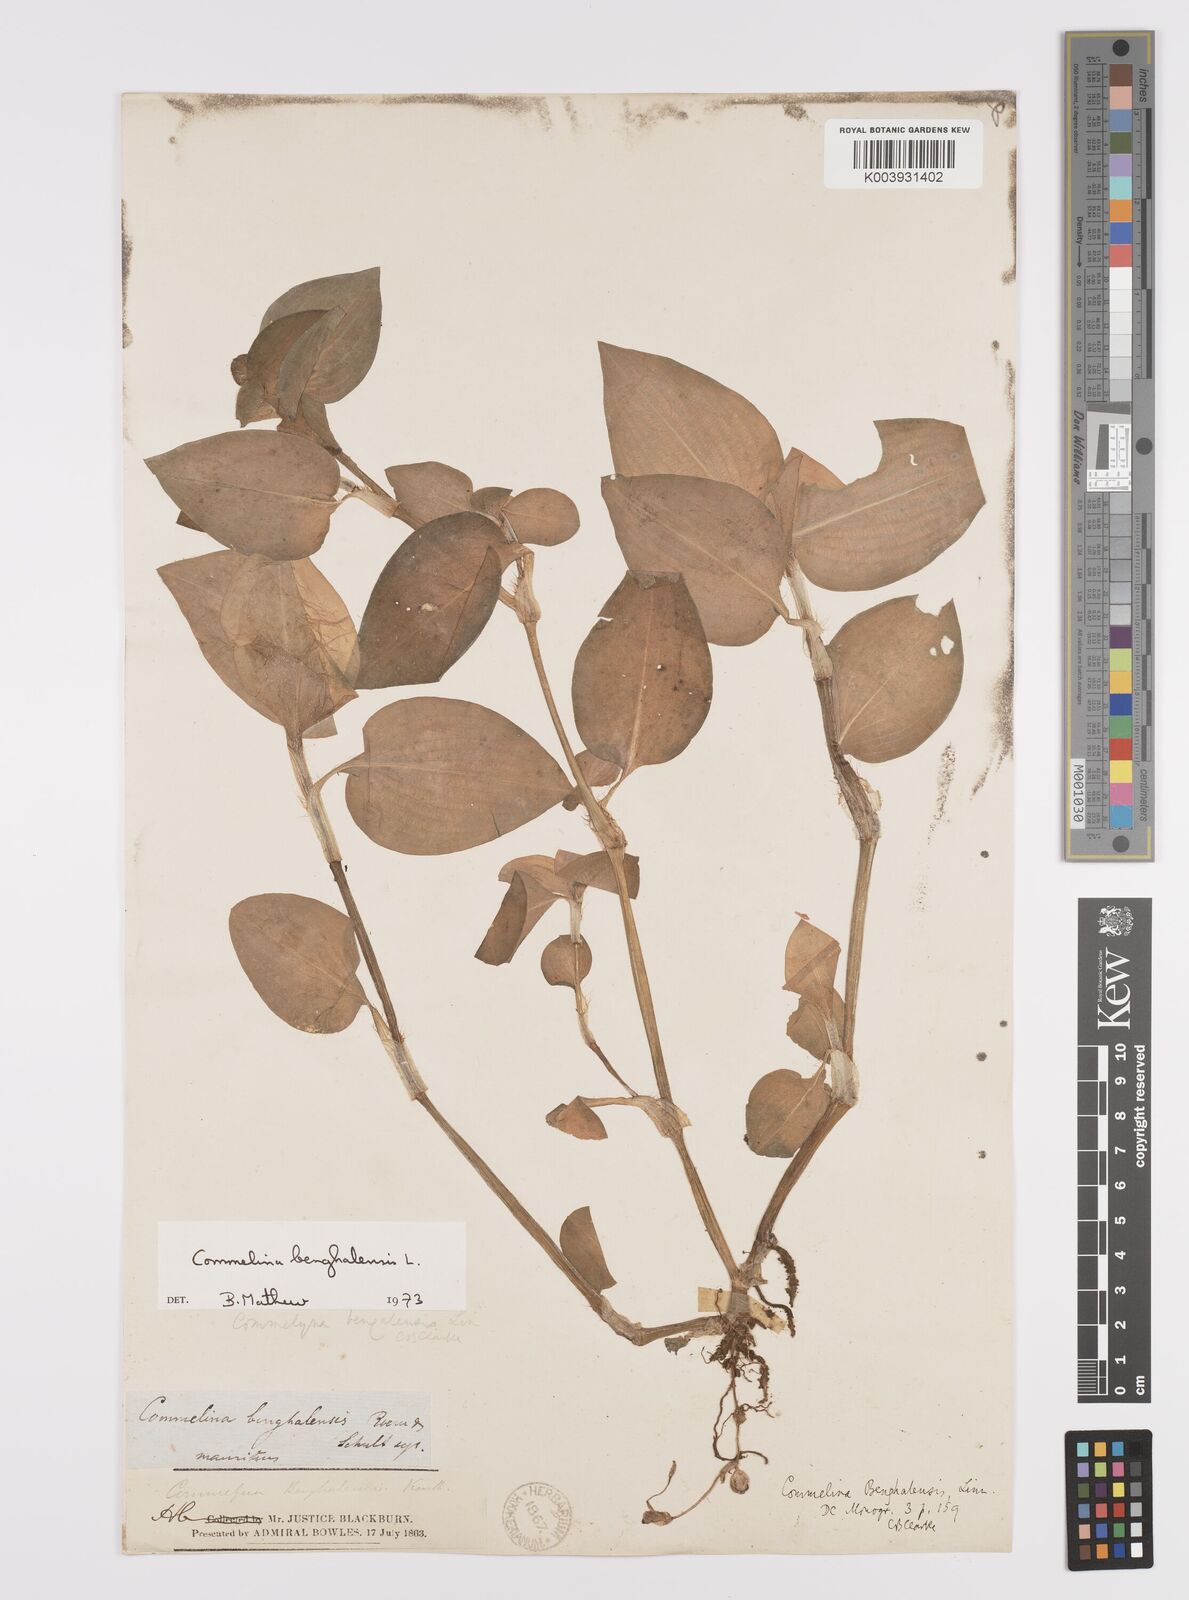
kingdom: Plantae
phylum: Tracheophyta
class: Liliopsida
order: Commelinales
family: Commelinaceae
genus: Commelina
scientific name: Commelina benghalensis
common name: Jio
